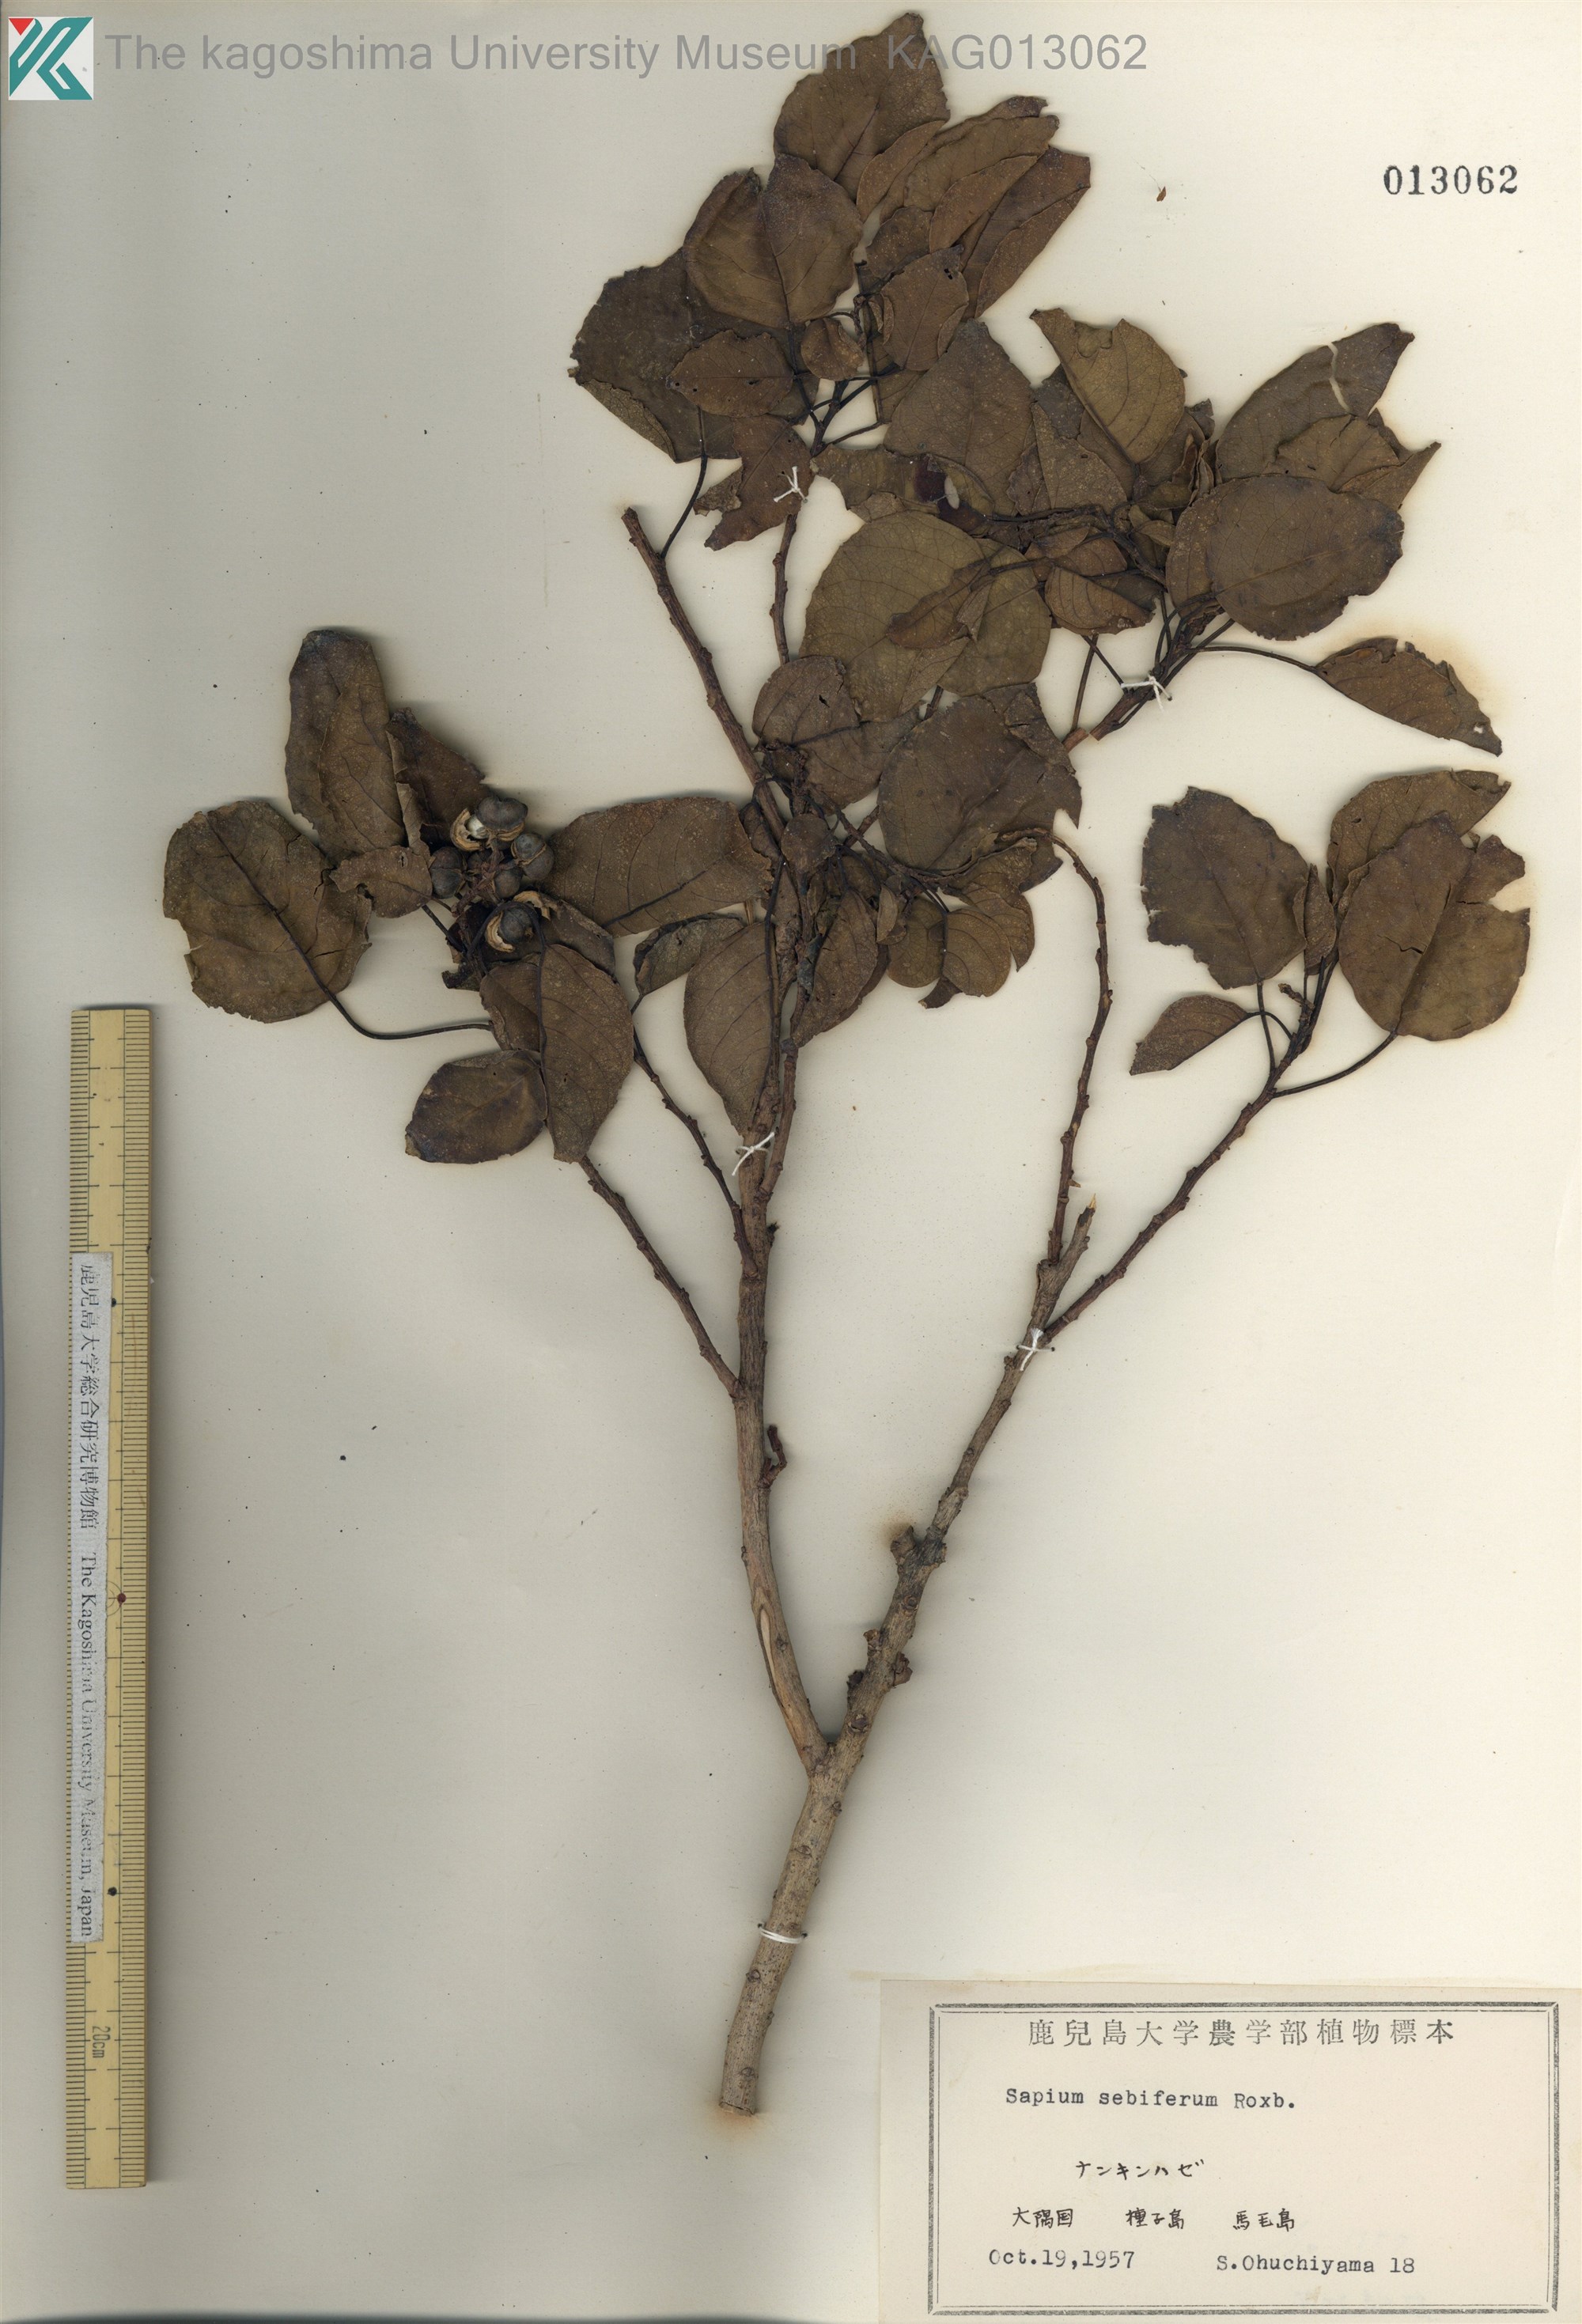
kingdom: Plantae
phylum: Tracheophyta
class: Magnoliopsida
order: Malpighiales
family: Euphorbiaceae
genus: Triadica
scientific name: Triadica sebifera
